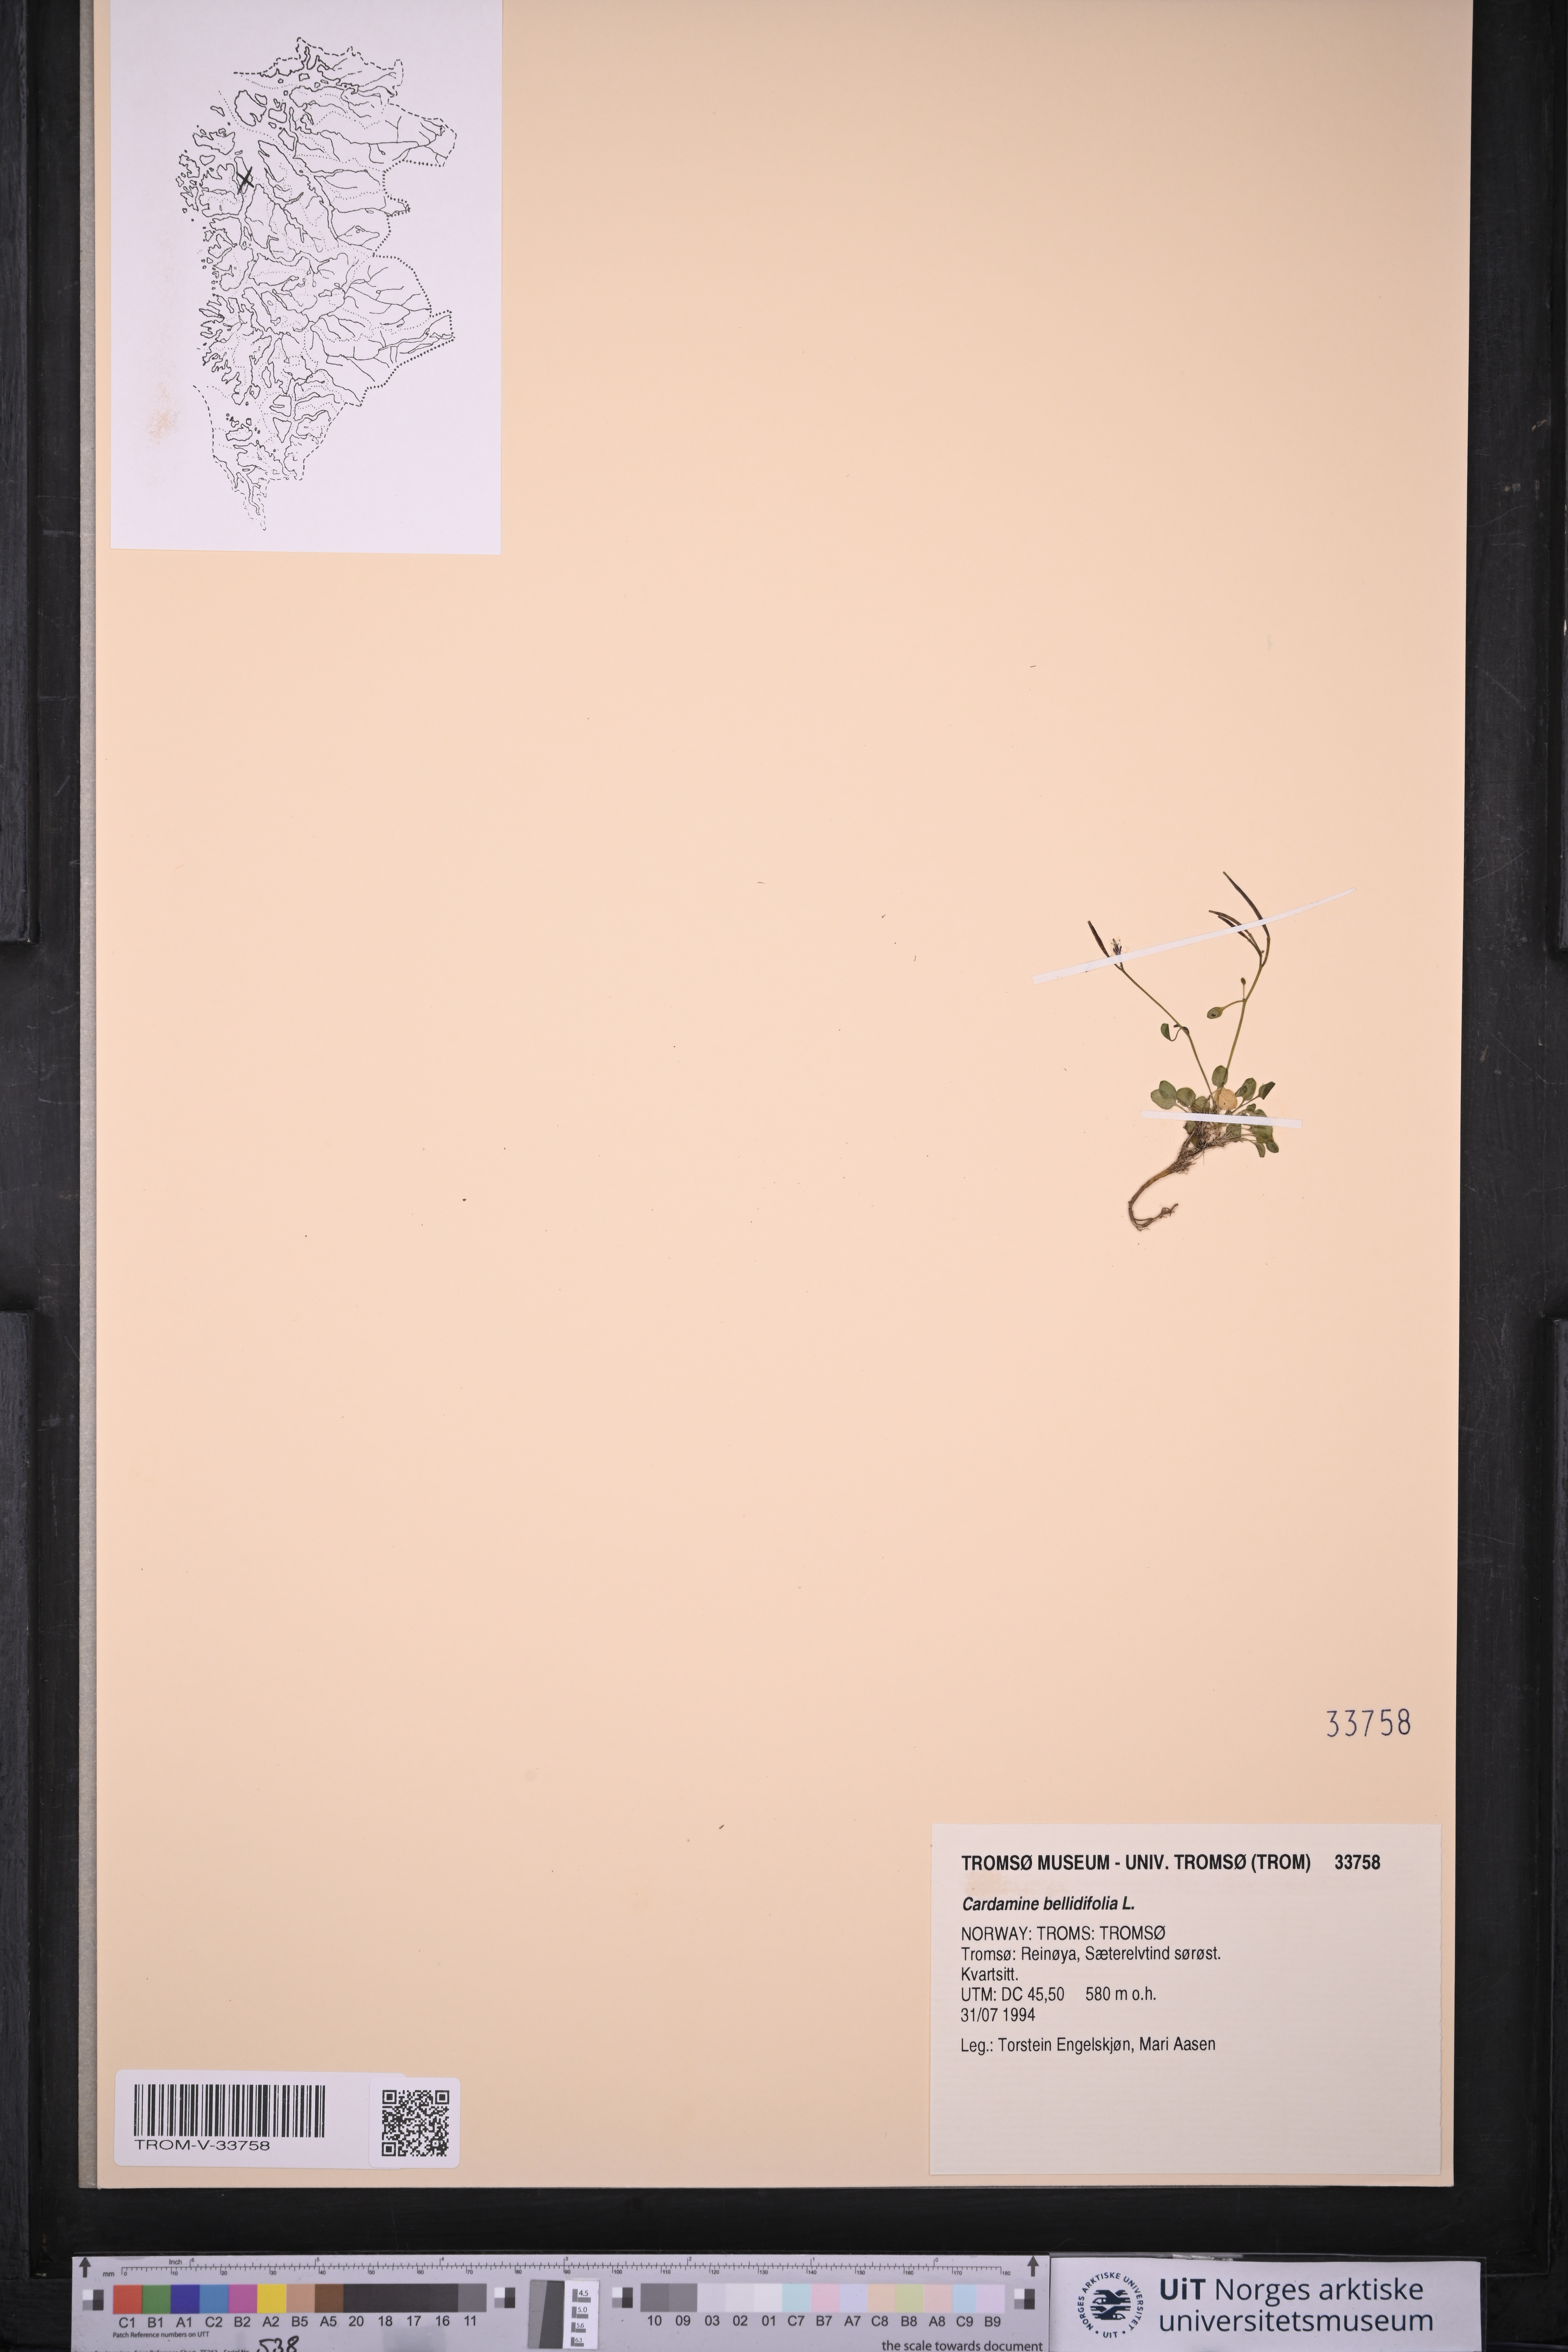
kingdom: Plantae
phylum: Tracheophyta
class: Magnoliopsida
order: Brassicales
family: Brassicaceae
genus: Cardamine
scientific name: Cardamine bellidifolia
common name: Alpine bittercress
